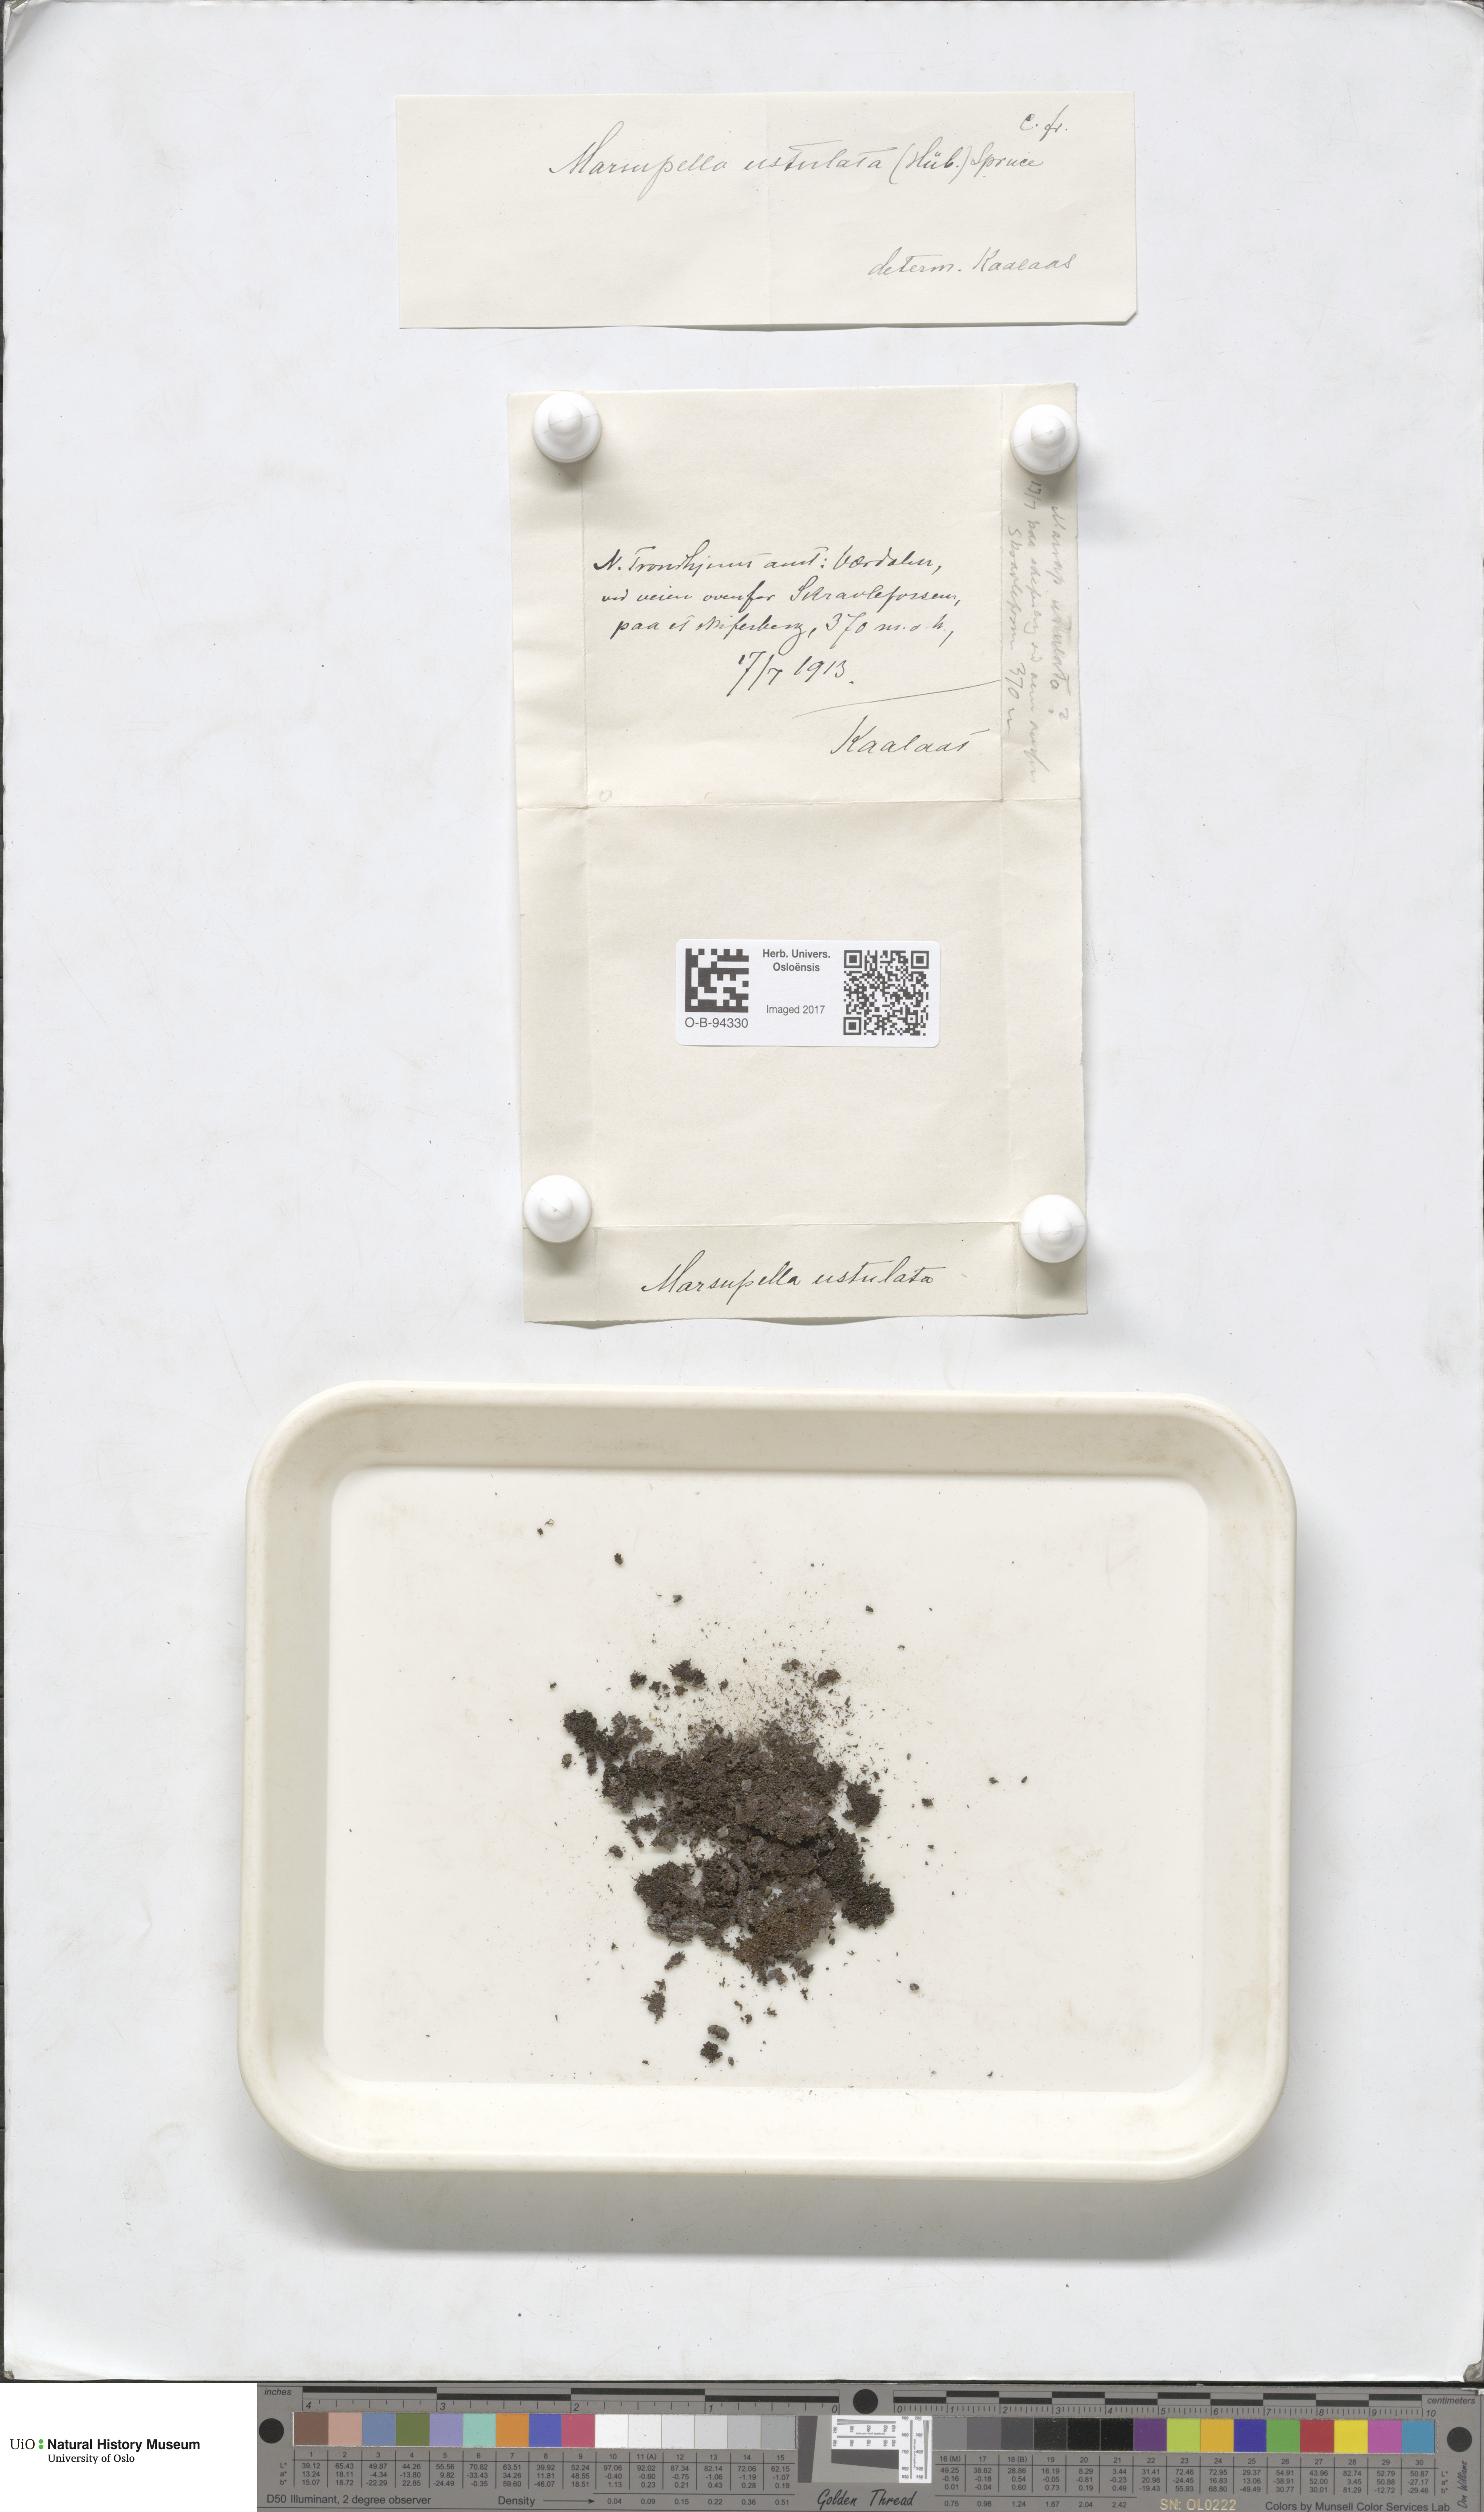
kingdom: Plantae
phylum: Marchantiophyta
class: Jungermanniopsida
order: Jungermanniales
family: Gymnomitriaceae
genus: Marsupella
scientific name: Marsupella sprucei
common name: Spruce s rustwort
